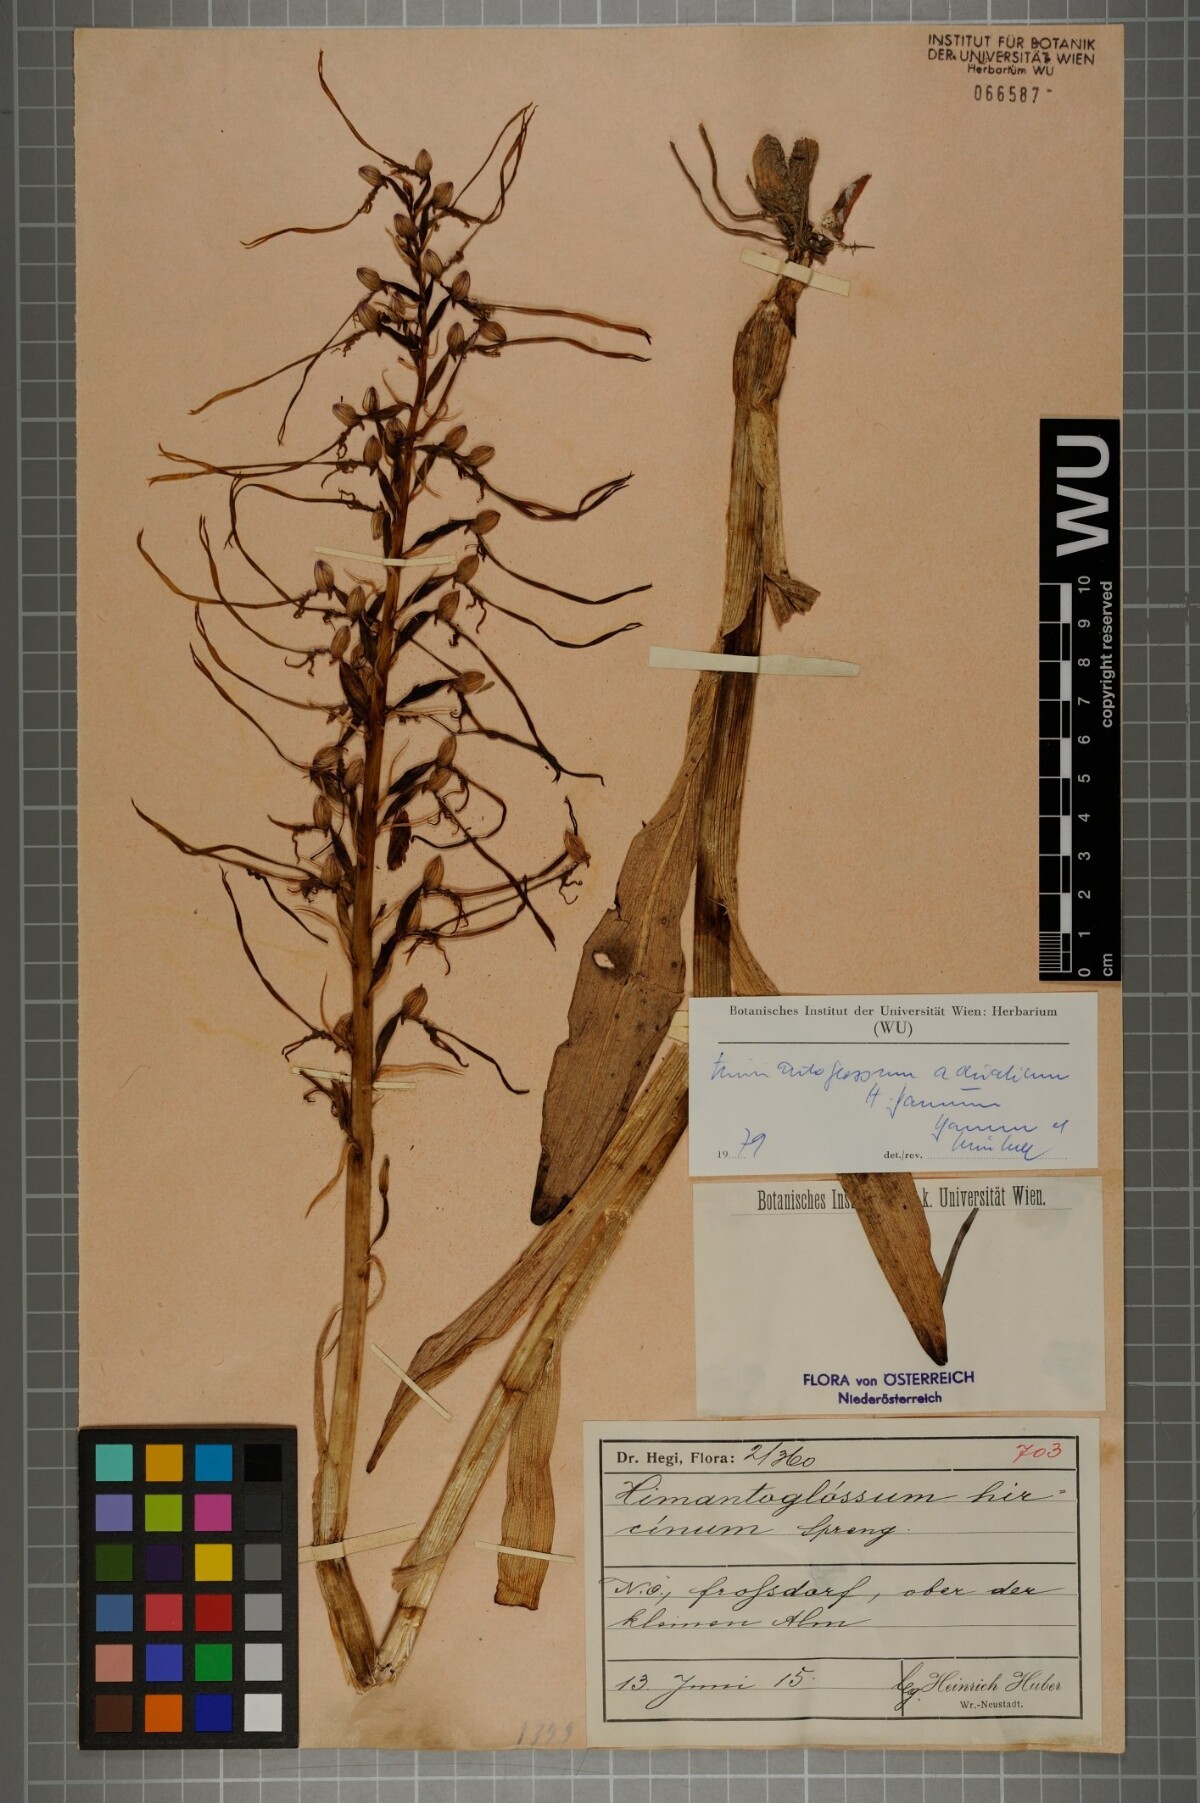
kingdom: Plantae
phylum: Tracheophyta
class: Liliopsida
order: Asparagales
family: Orchidaceae
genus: Himantoglossum
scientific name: Himantoglossum adriaticum
